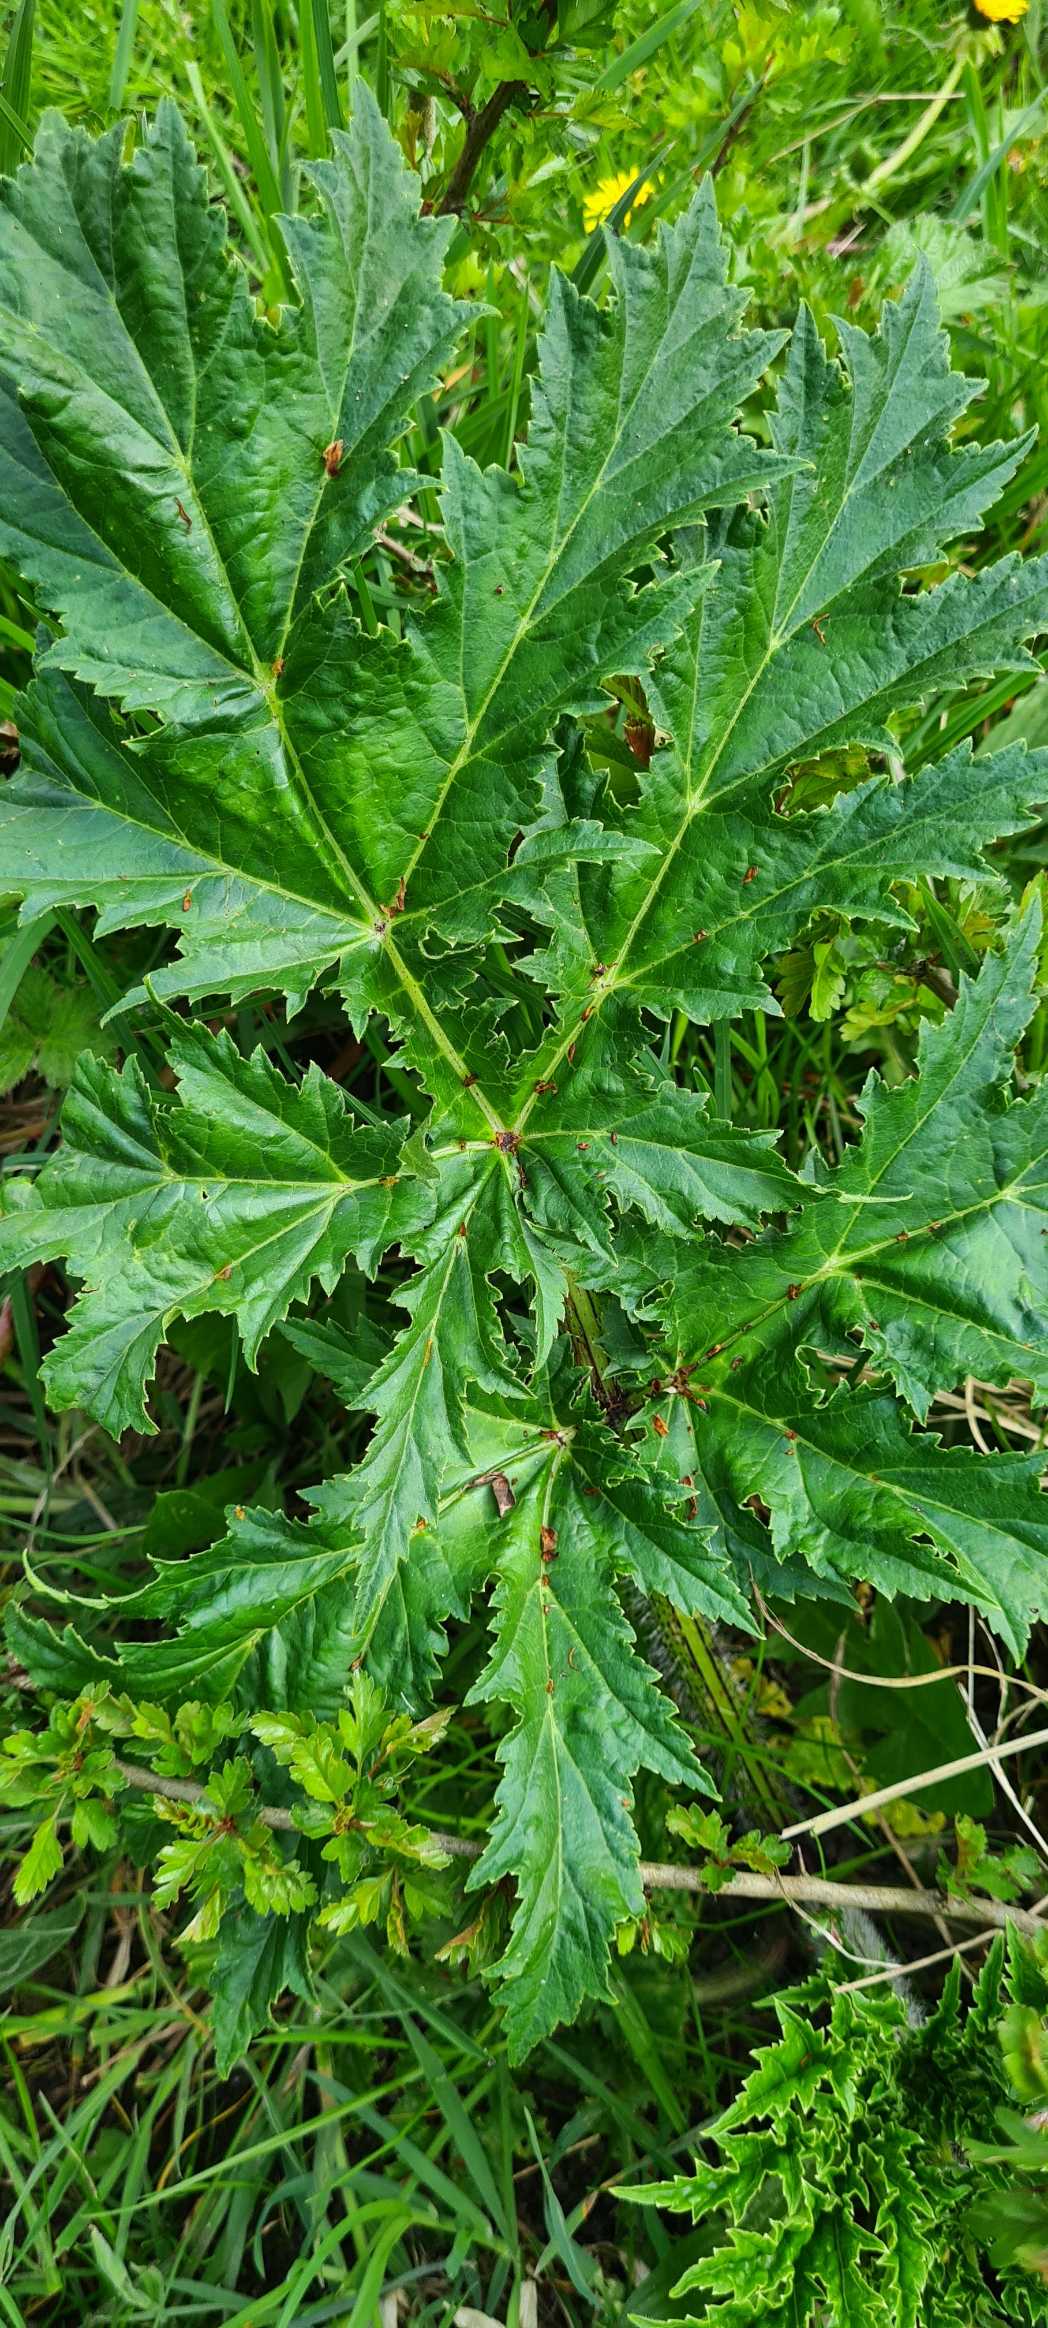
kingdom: Plantae
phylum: Tracheophyta
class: Magnoliopsida
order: Apiales
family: Apiaceae
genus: Heracleum
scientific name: Heracleum mantegazzianum
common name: Kæmpe-bjørneklo
